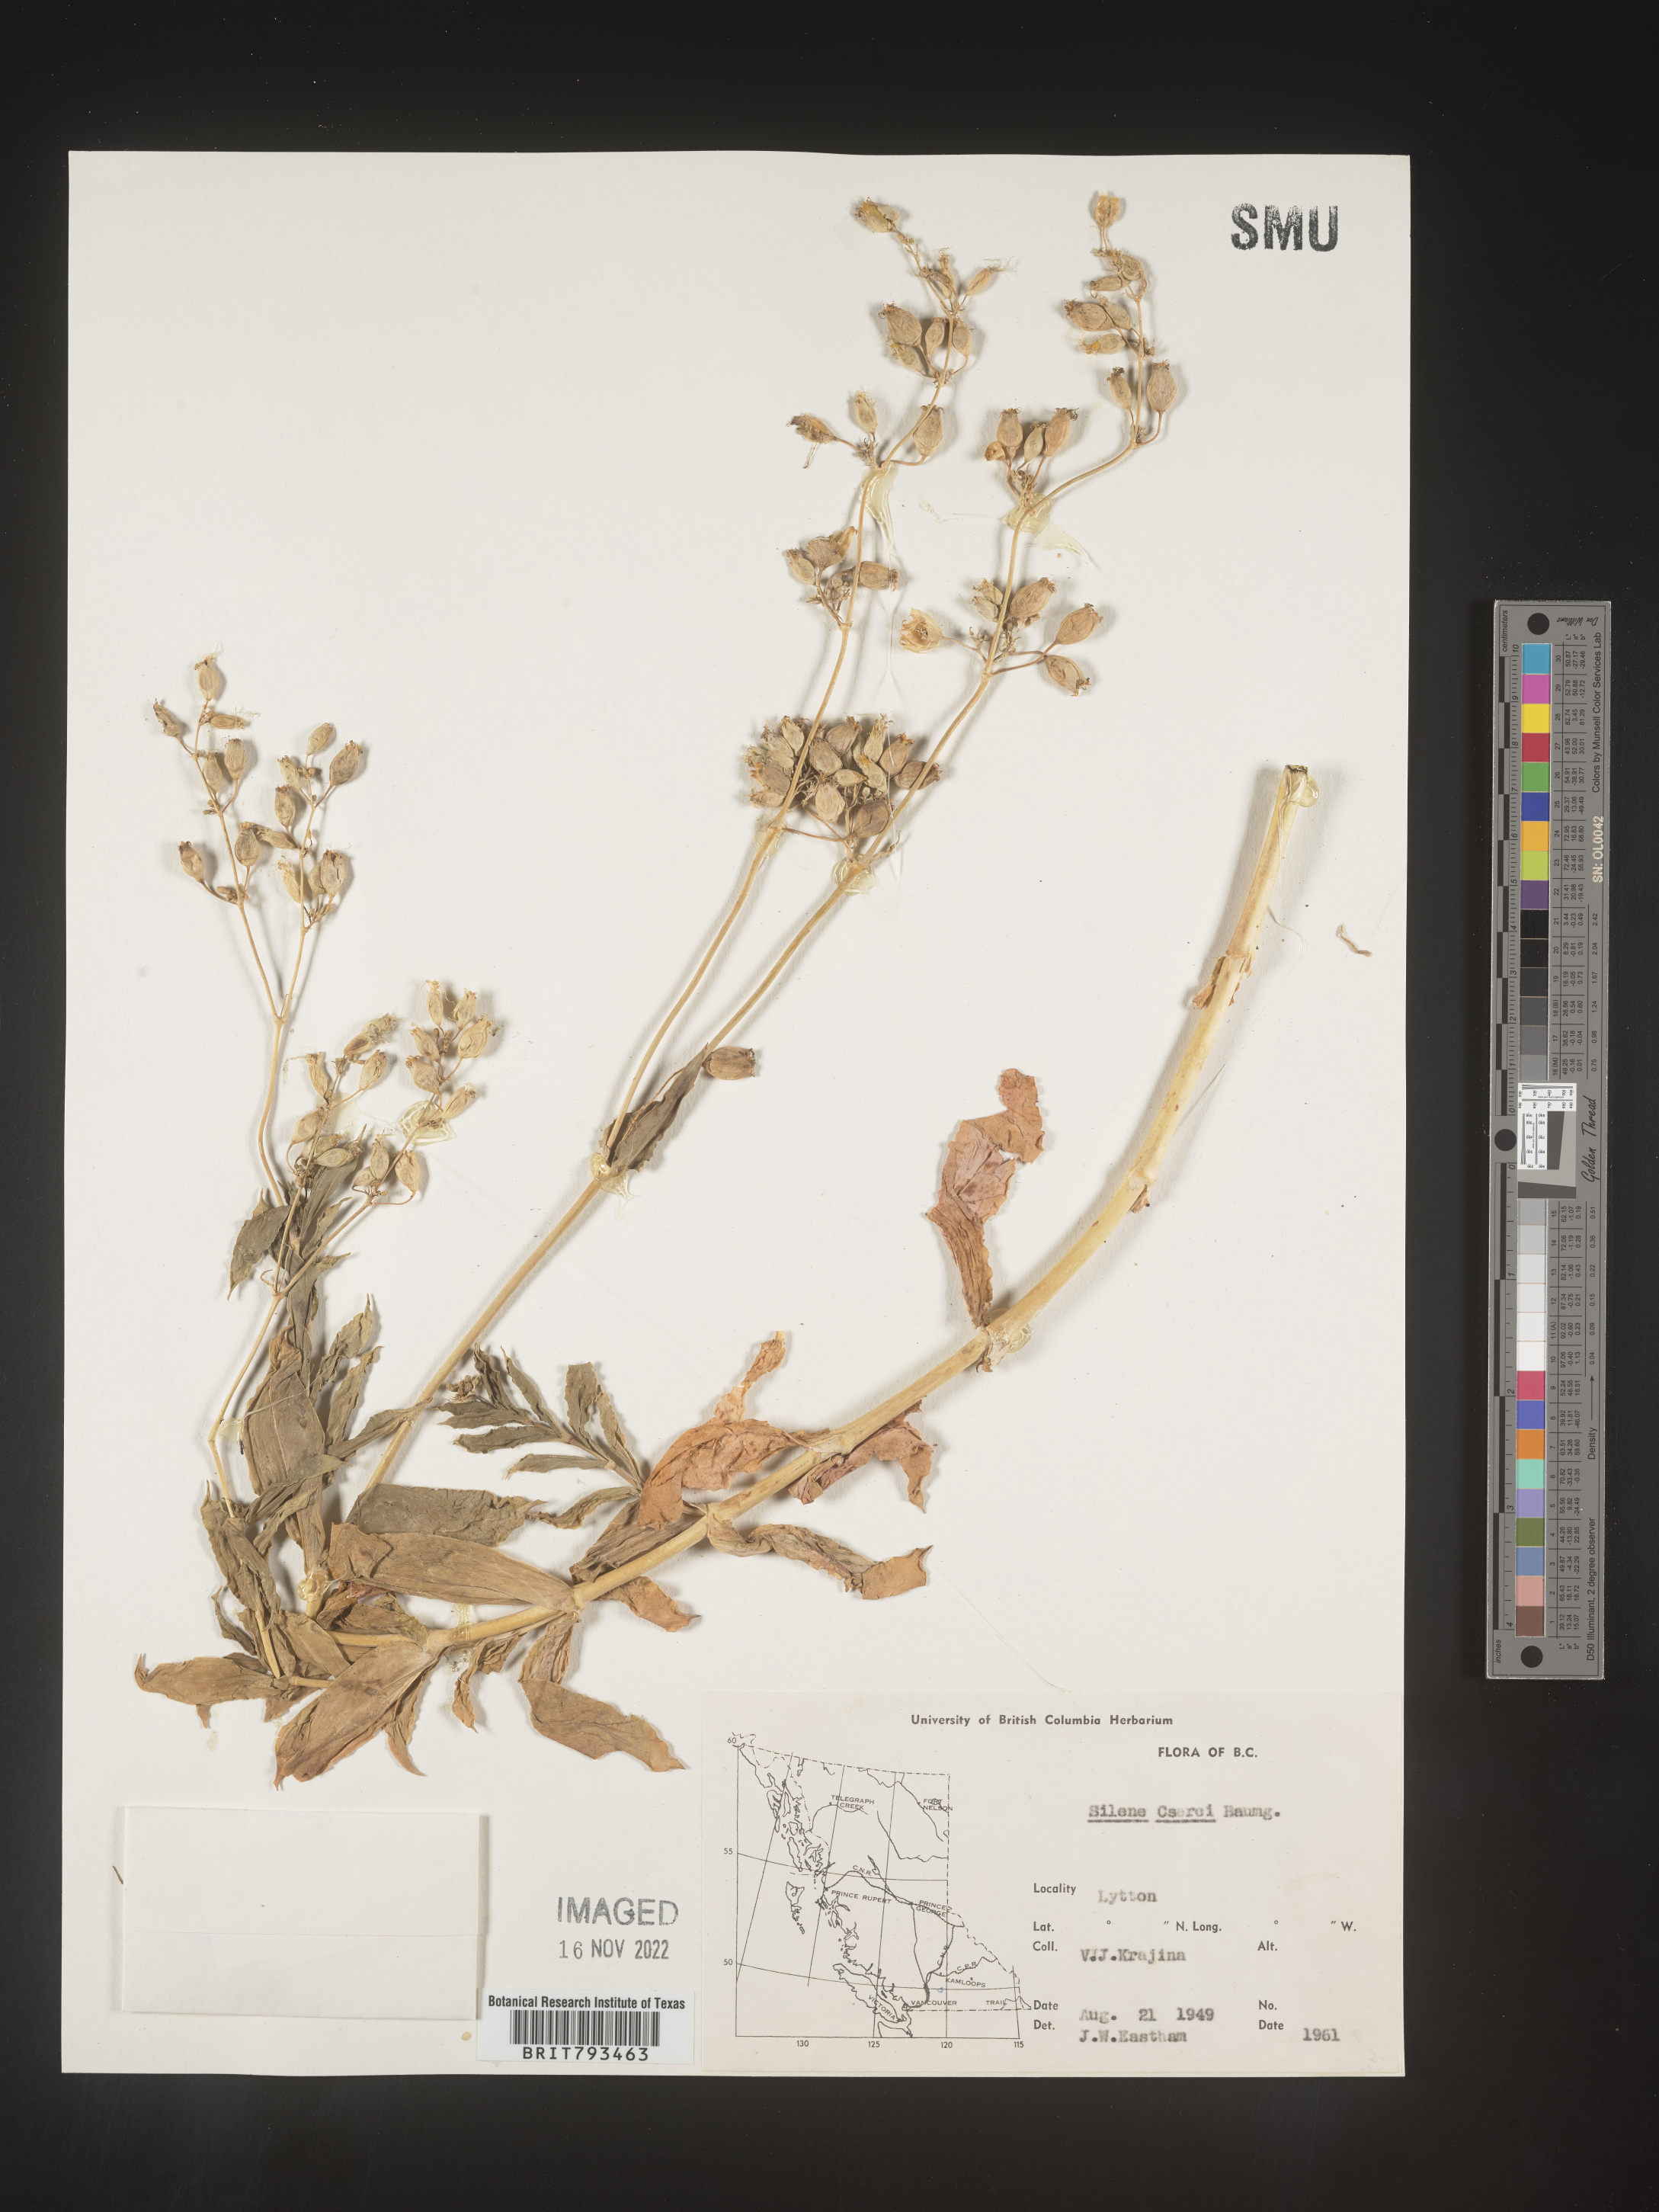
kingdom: Plantae
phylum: Tracheophyta
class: Magnoliopsida
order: Caryophyllales
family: Caryophyllaceae
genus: Silene
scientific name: Silene csereii
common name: Balkan catchfly
